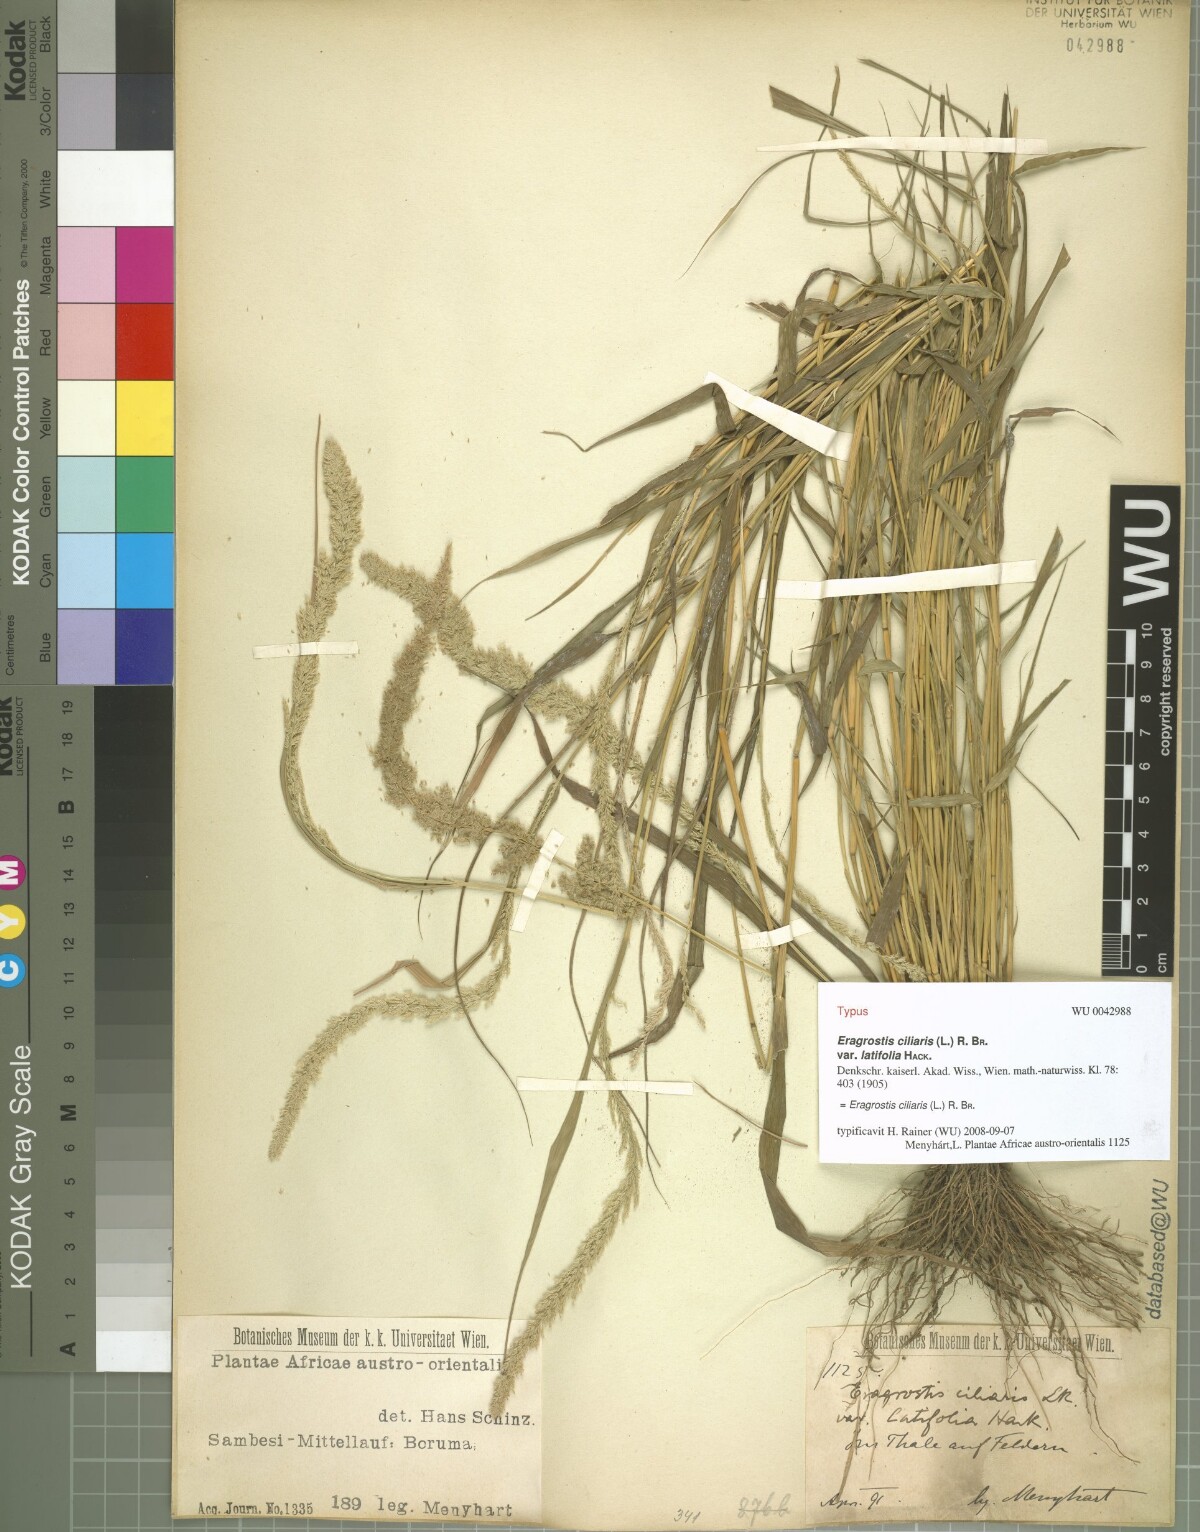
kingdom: Plantae
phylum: Tracheophyta
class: Liliopsida
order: Poales
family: Poaceae
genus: Eragrostis
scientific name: Eragrostis ciliaris
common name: Gophertail lovegrass
